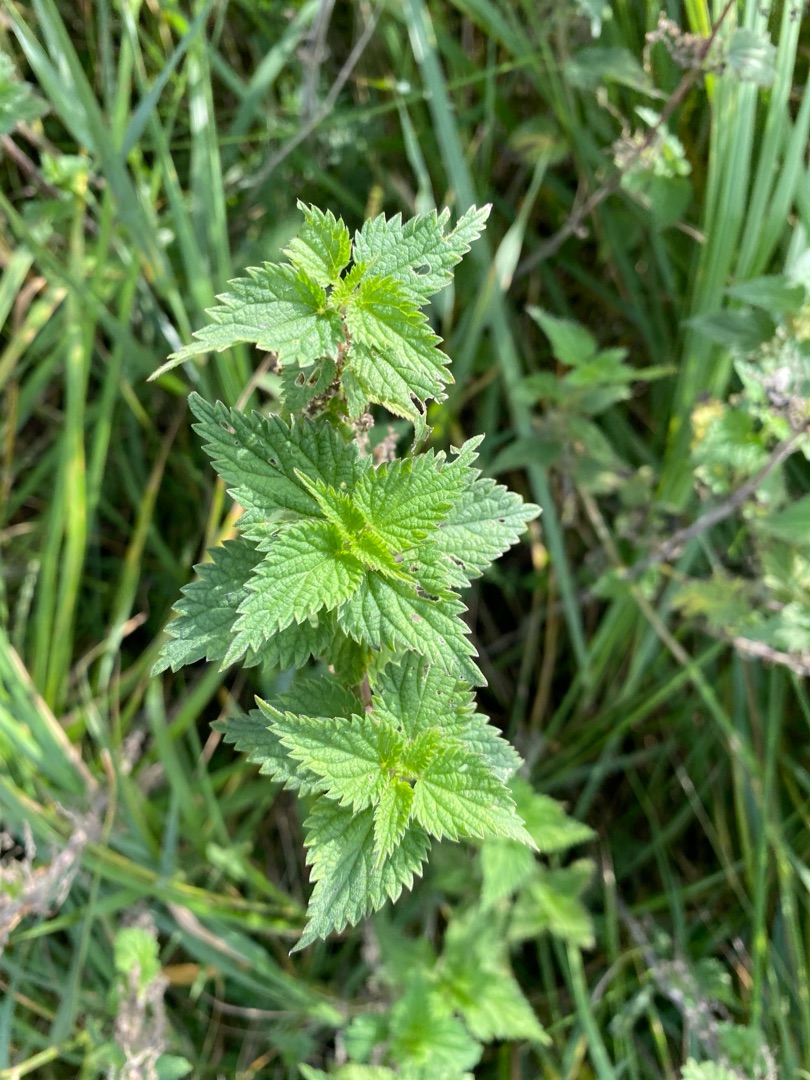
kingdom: Plantae
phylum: Tracheophyta
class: Magnoliopsida
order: Rosales
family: Urticaceae
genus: Urtica
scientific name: Urtica dioica
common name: Stor nælde
